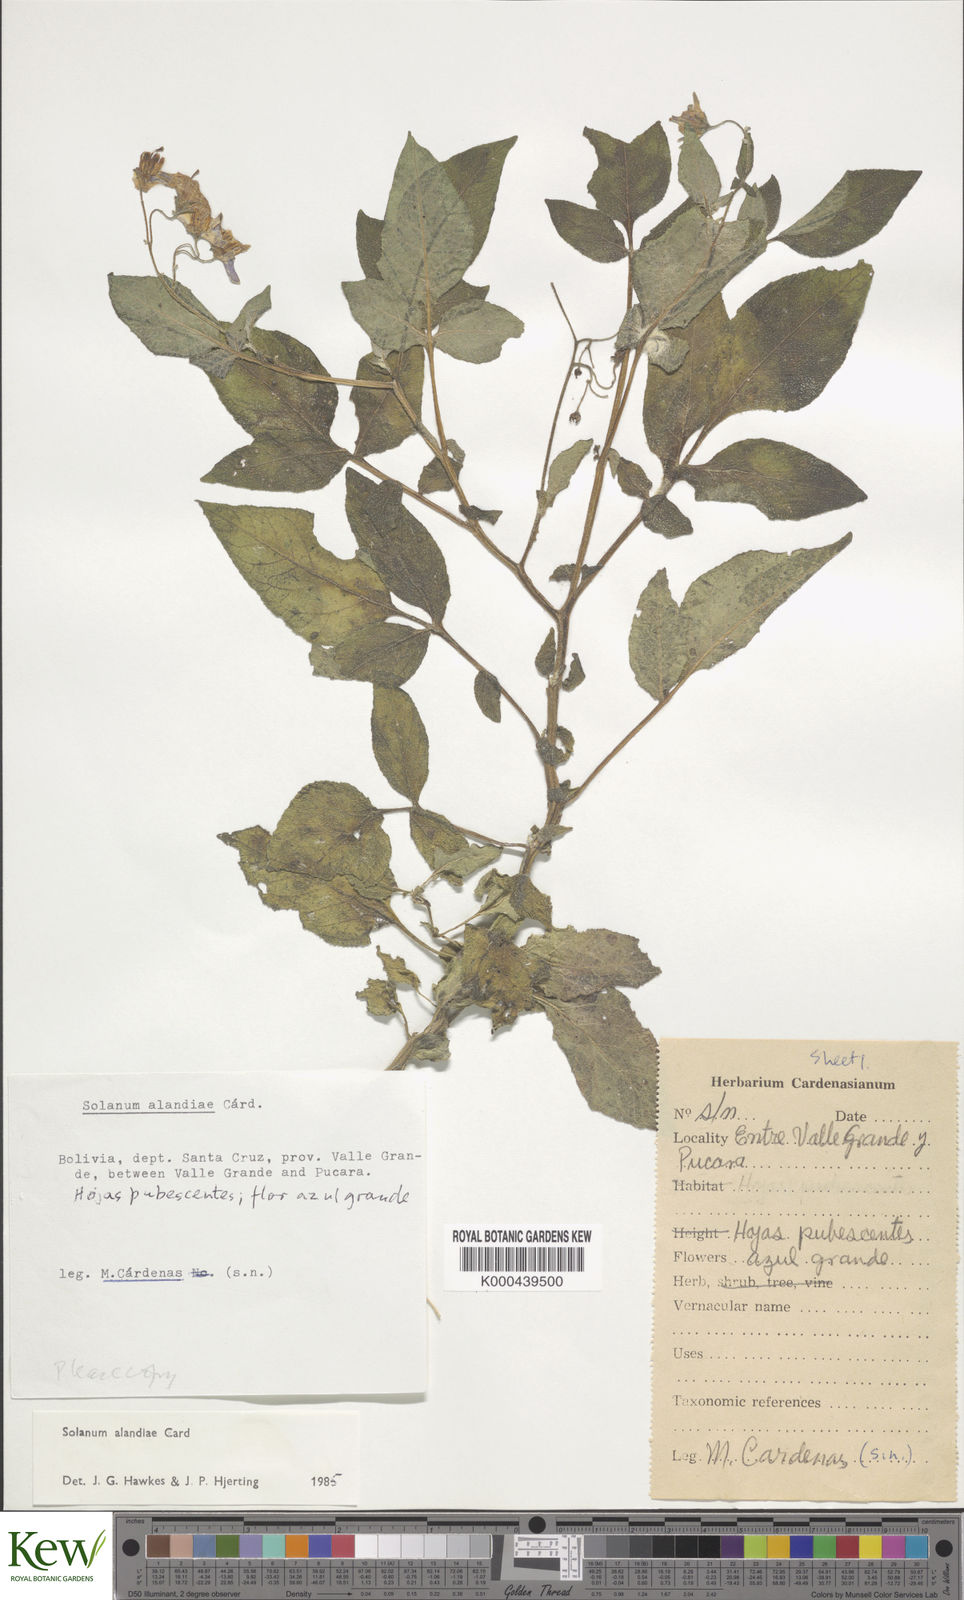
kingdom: Plantae
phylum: Tracheophyta
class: Magnoliopsida
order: Solanales
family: Solanaceae
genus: Solanum
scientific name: Solanum brevicaule
